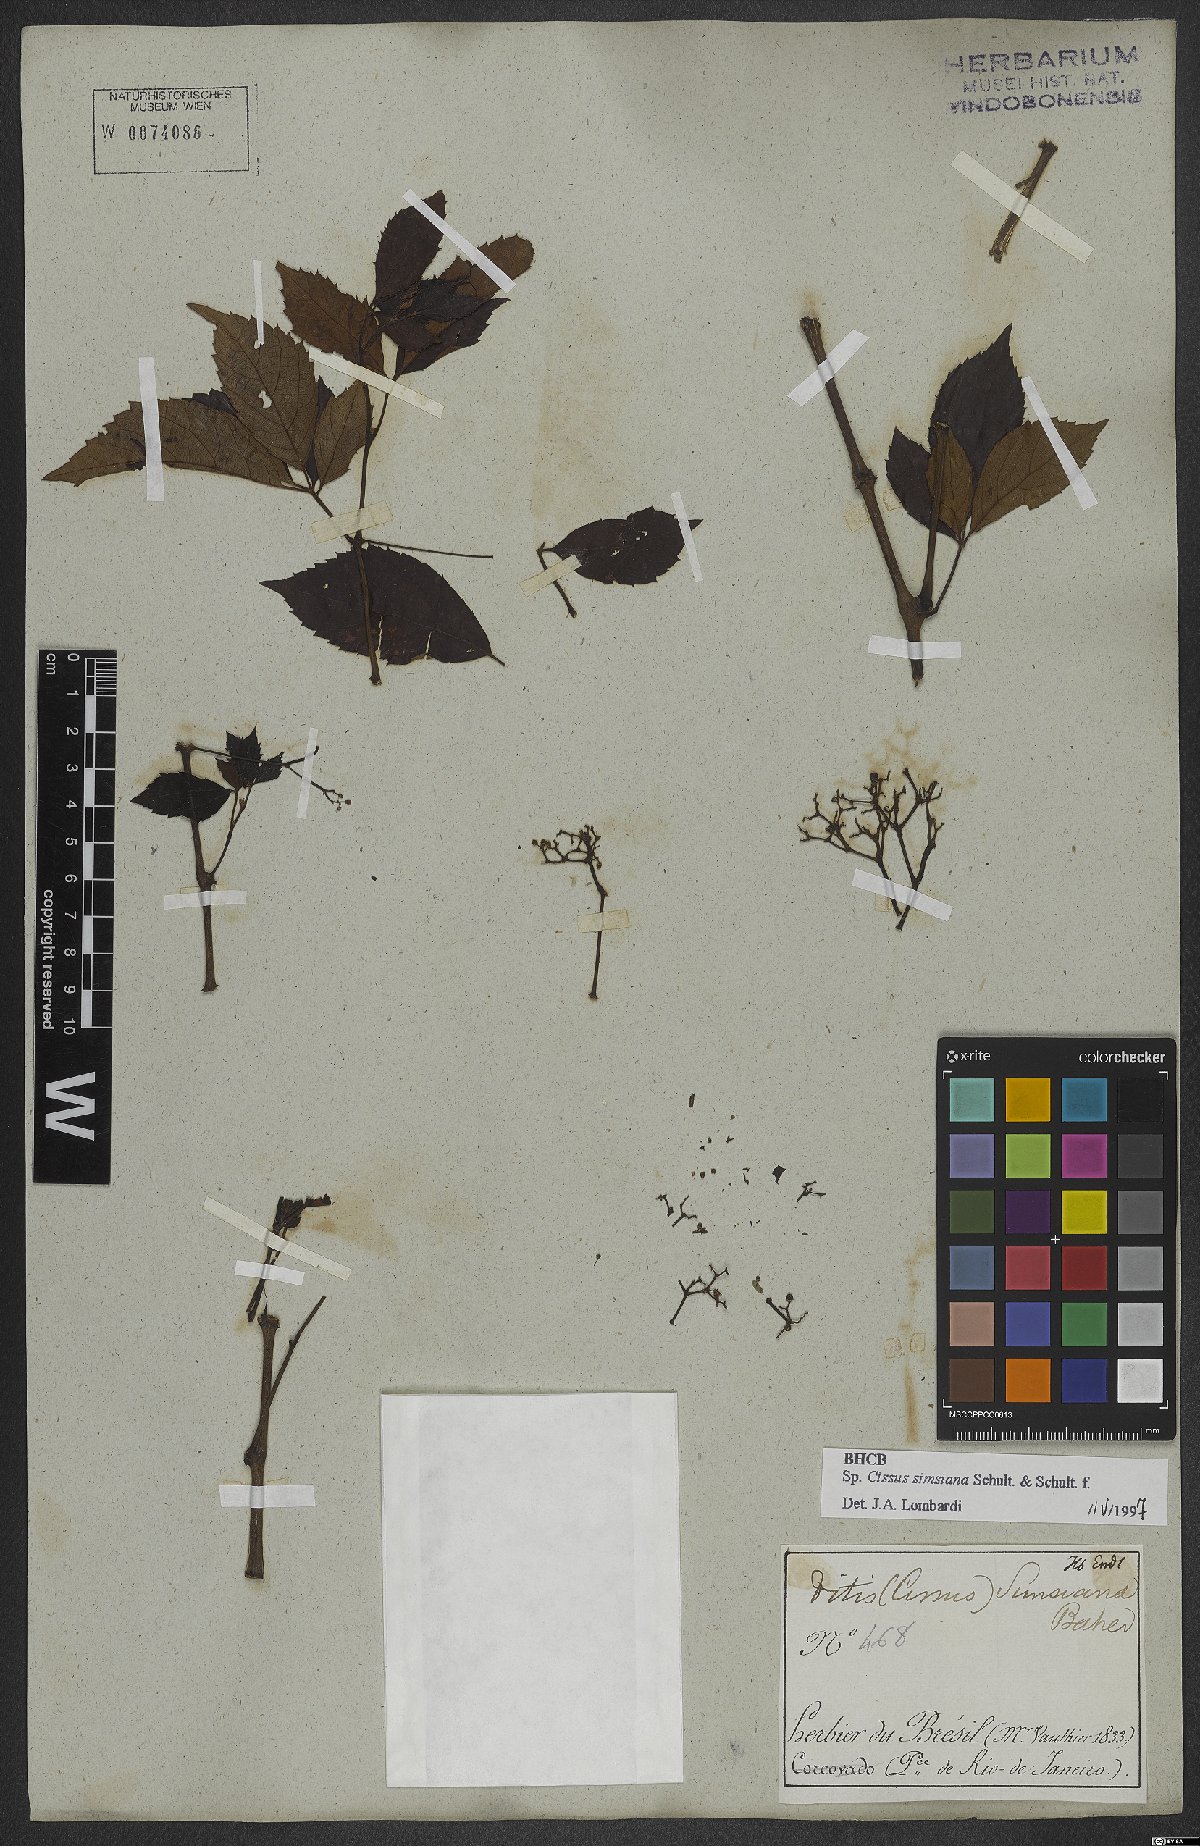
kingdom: Plantae
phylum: Tracheophyta
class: Magnoliopsida
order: Vitales
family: Vitaceae
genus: Clematicissus
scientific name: Clematicissus simsiana
